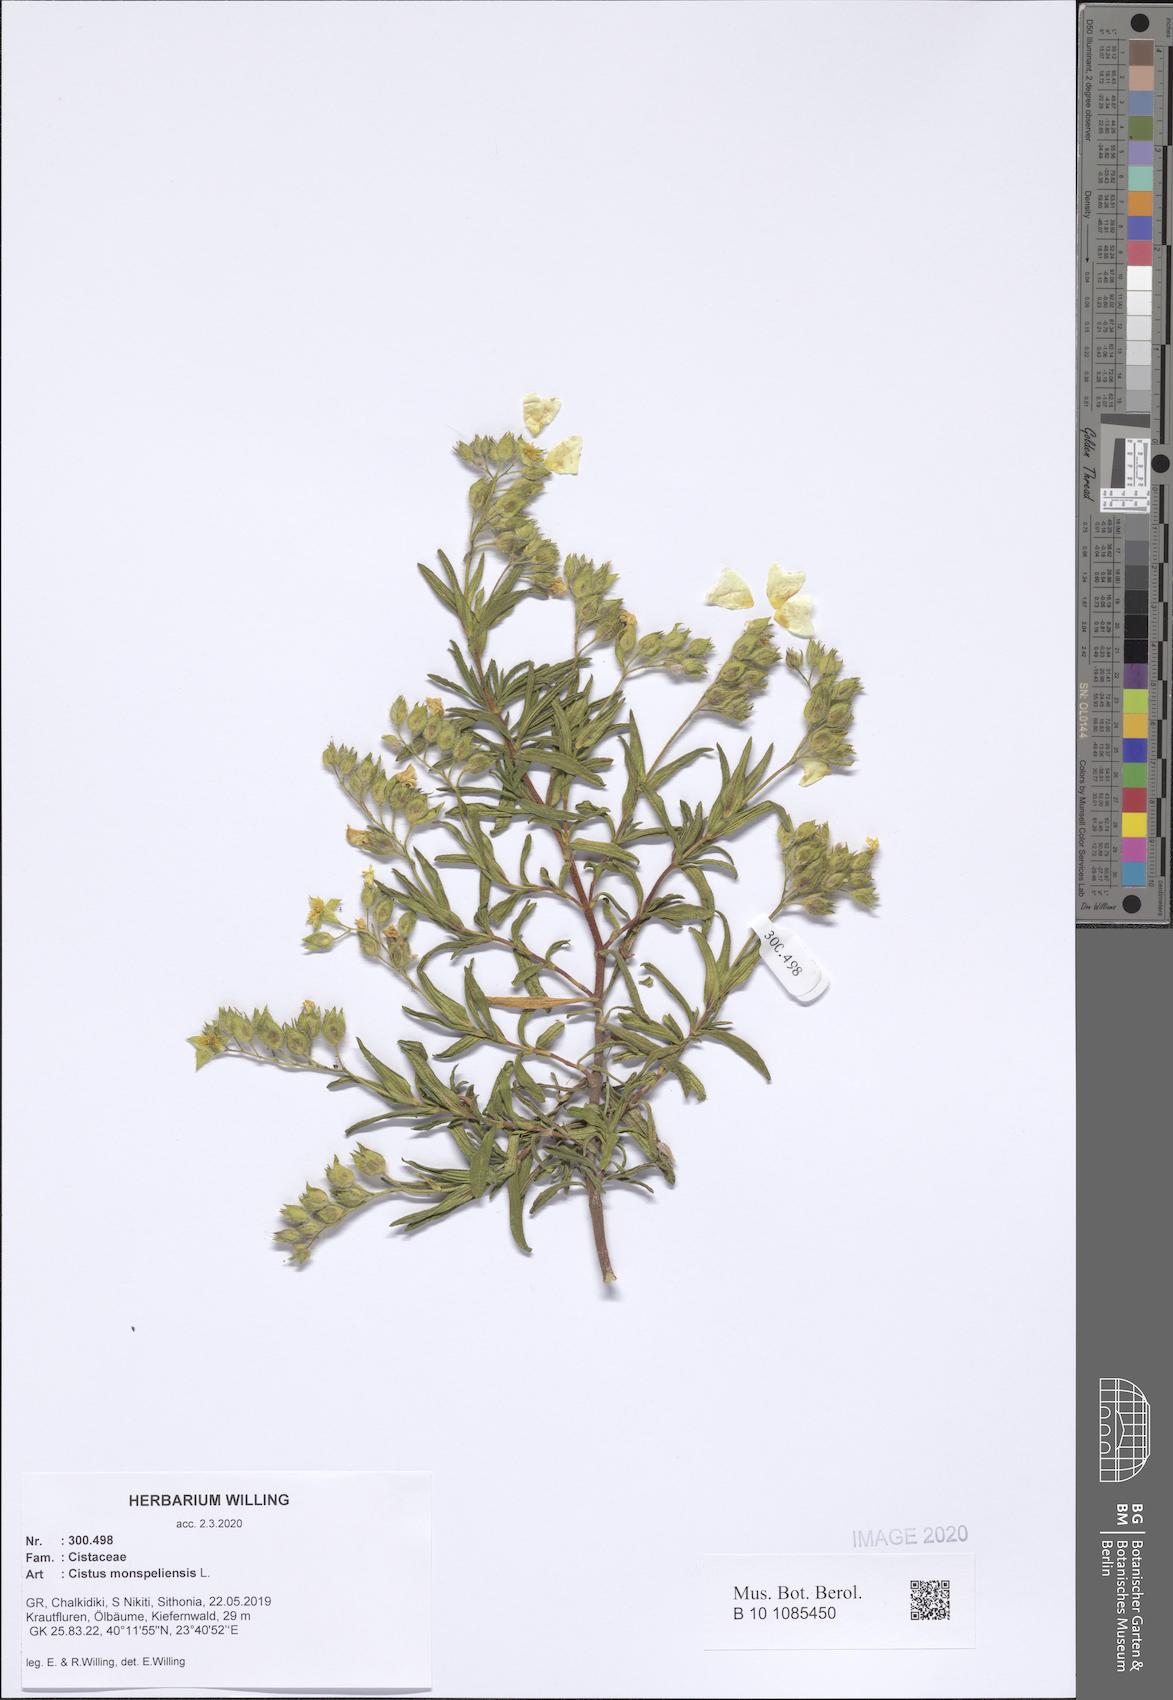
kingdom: Plantae
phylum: Tracheophyta
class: Magnoliopsida
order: Malvales
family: Cistaceae
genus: Cistus
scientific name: Cistus monspeliensis
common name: Montpelier cistus
